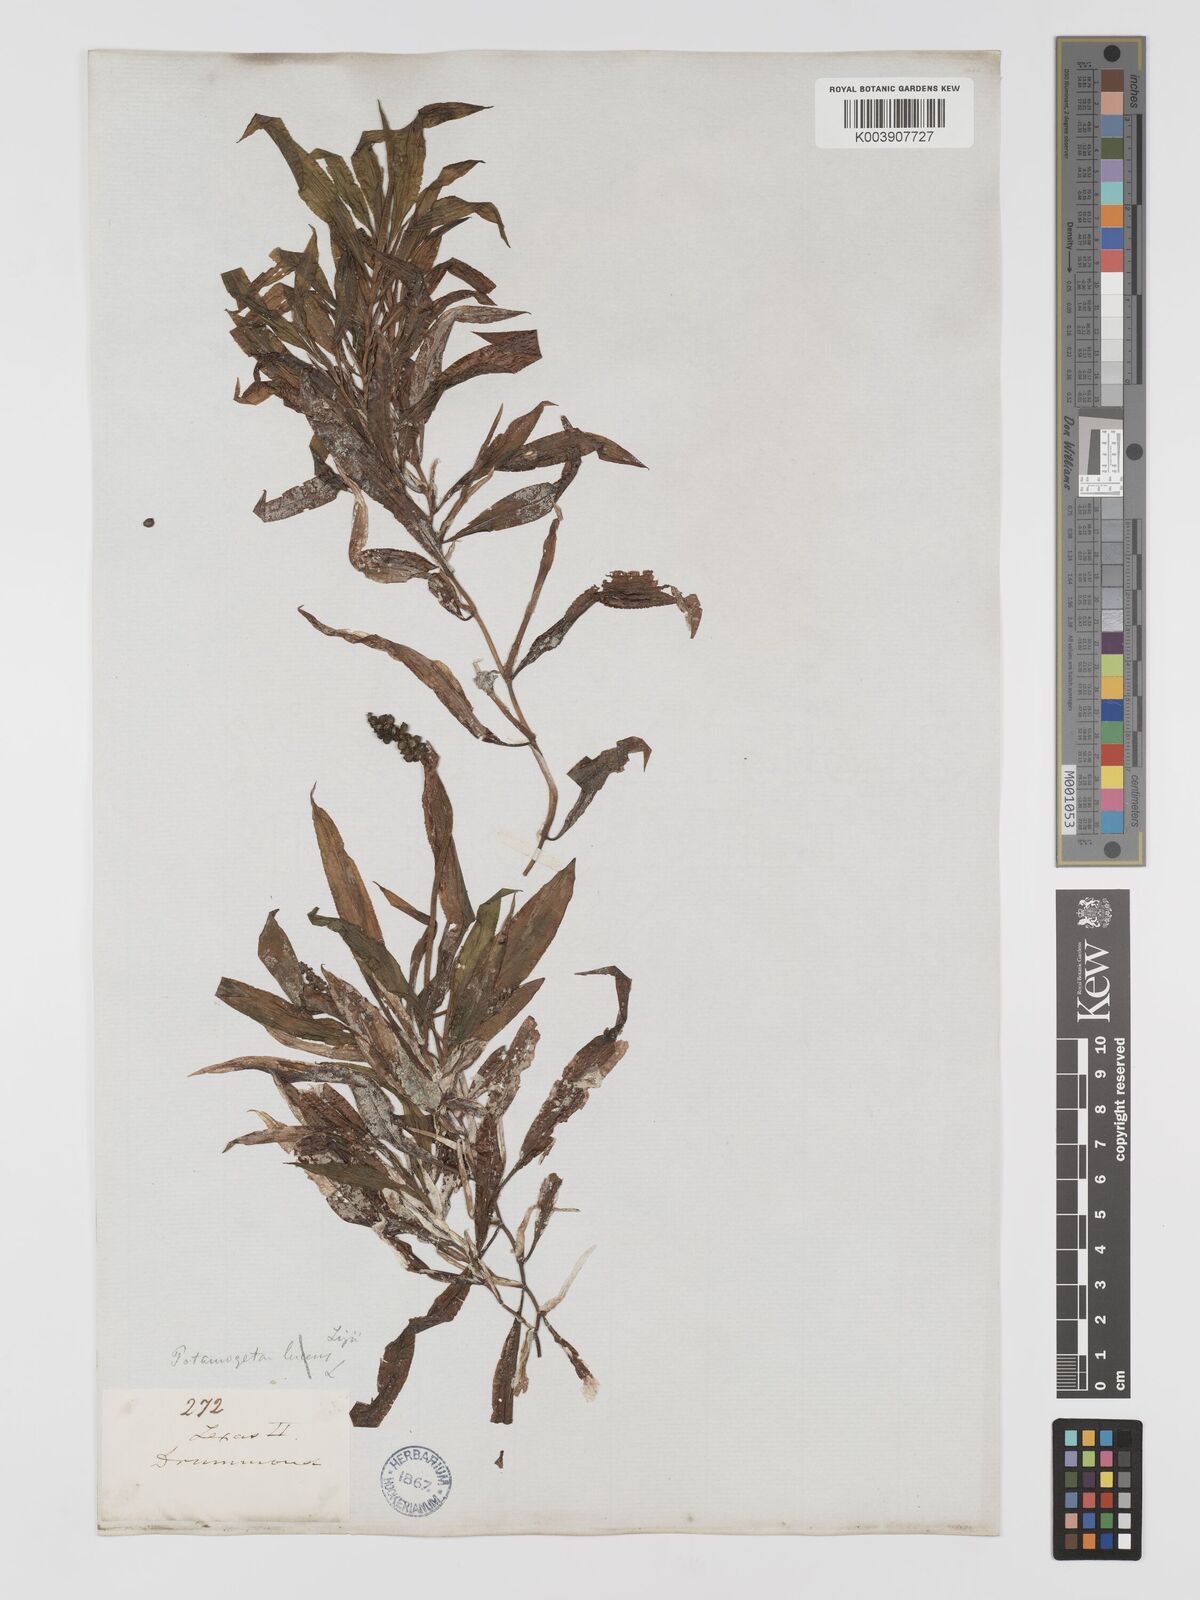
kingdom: Plantae
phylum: Tracheophyta
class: Liliopsida
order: Alismatales
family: Potamogetonaceae
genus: Potamogeton
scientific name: Potamogeton lucens
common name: Shining pondweed
